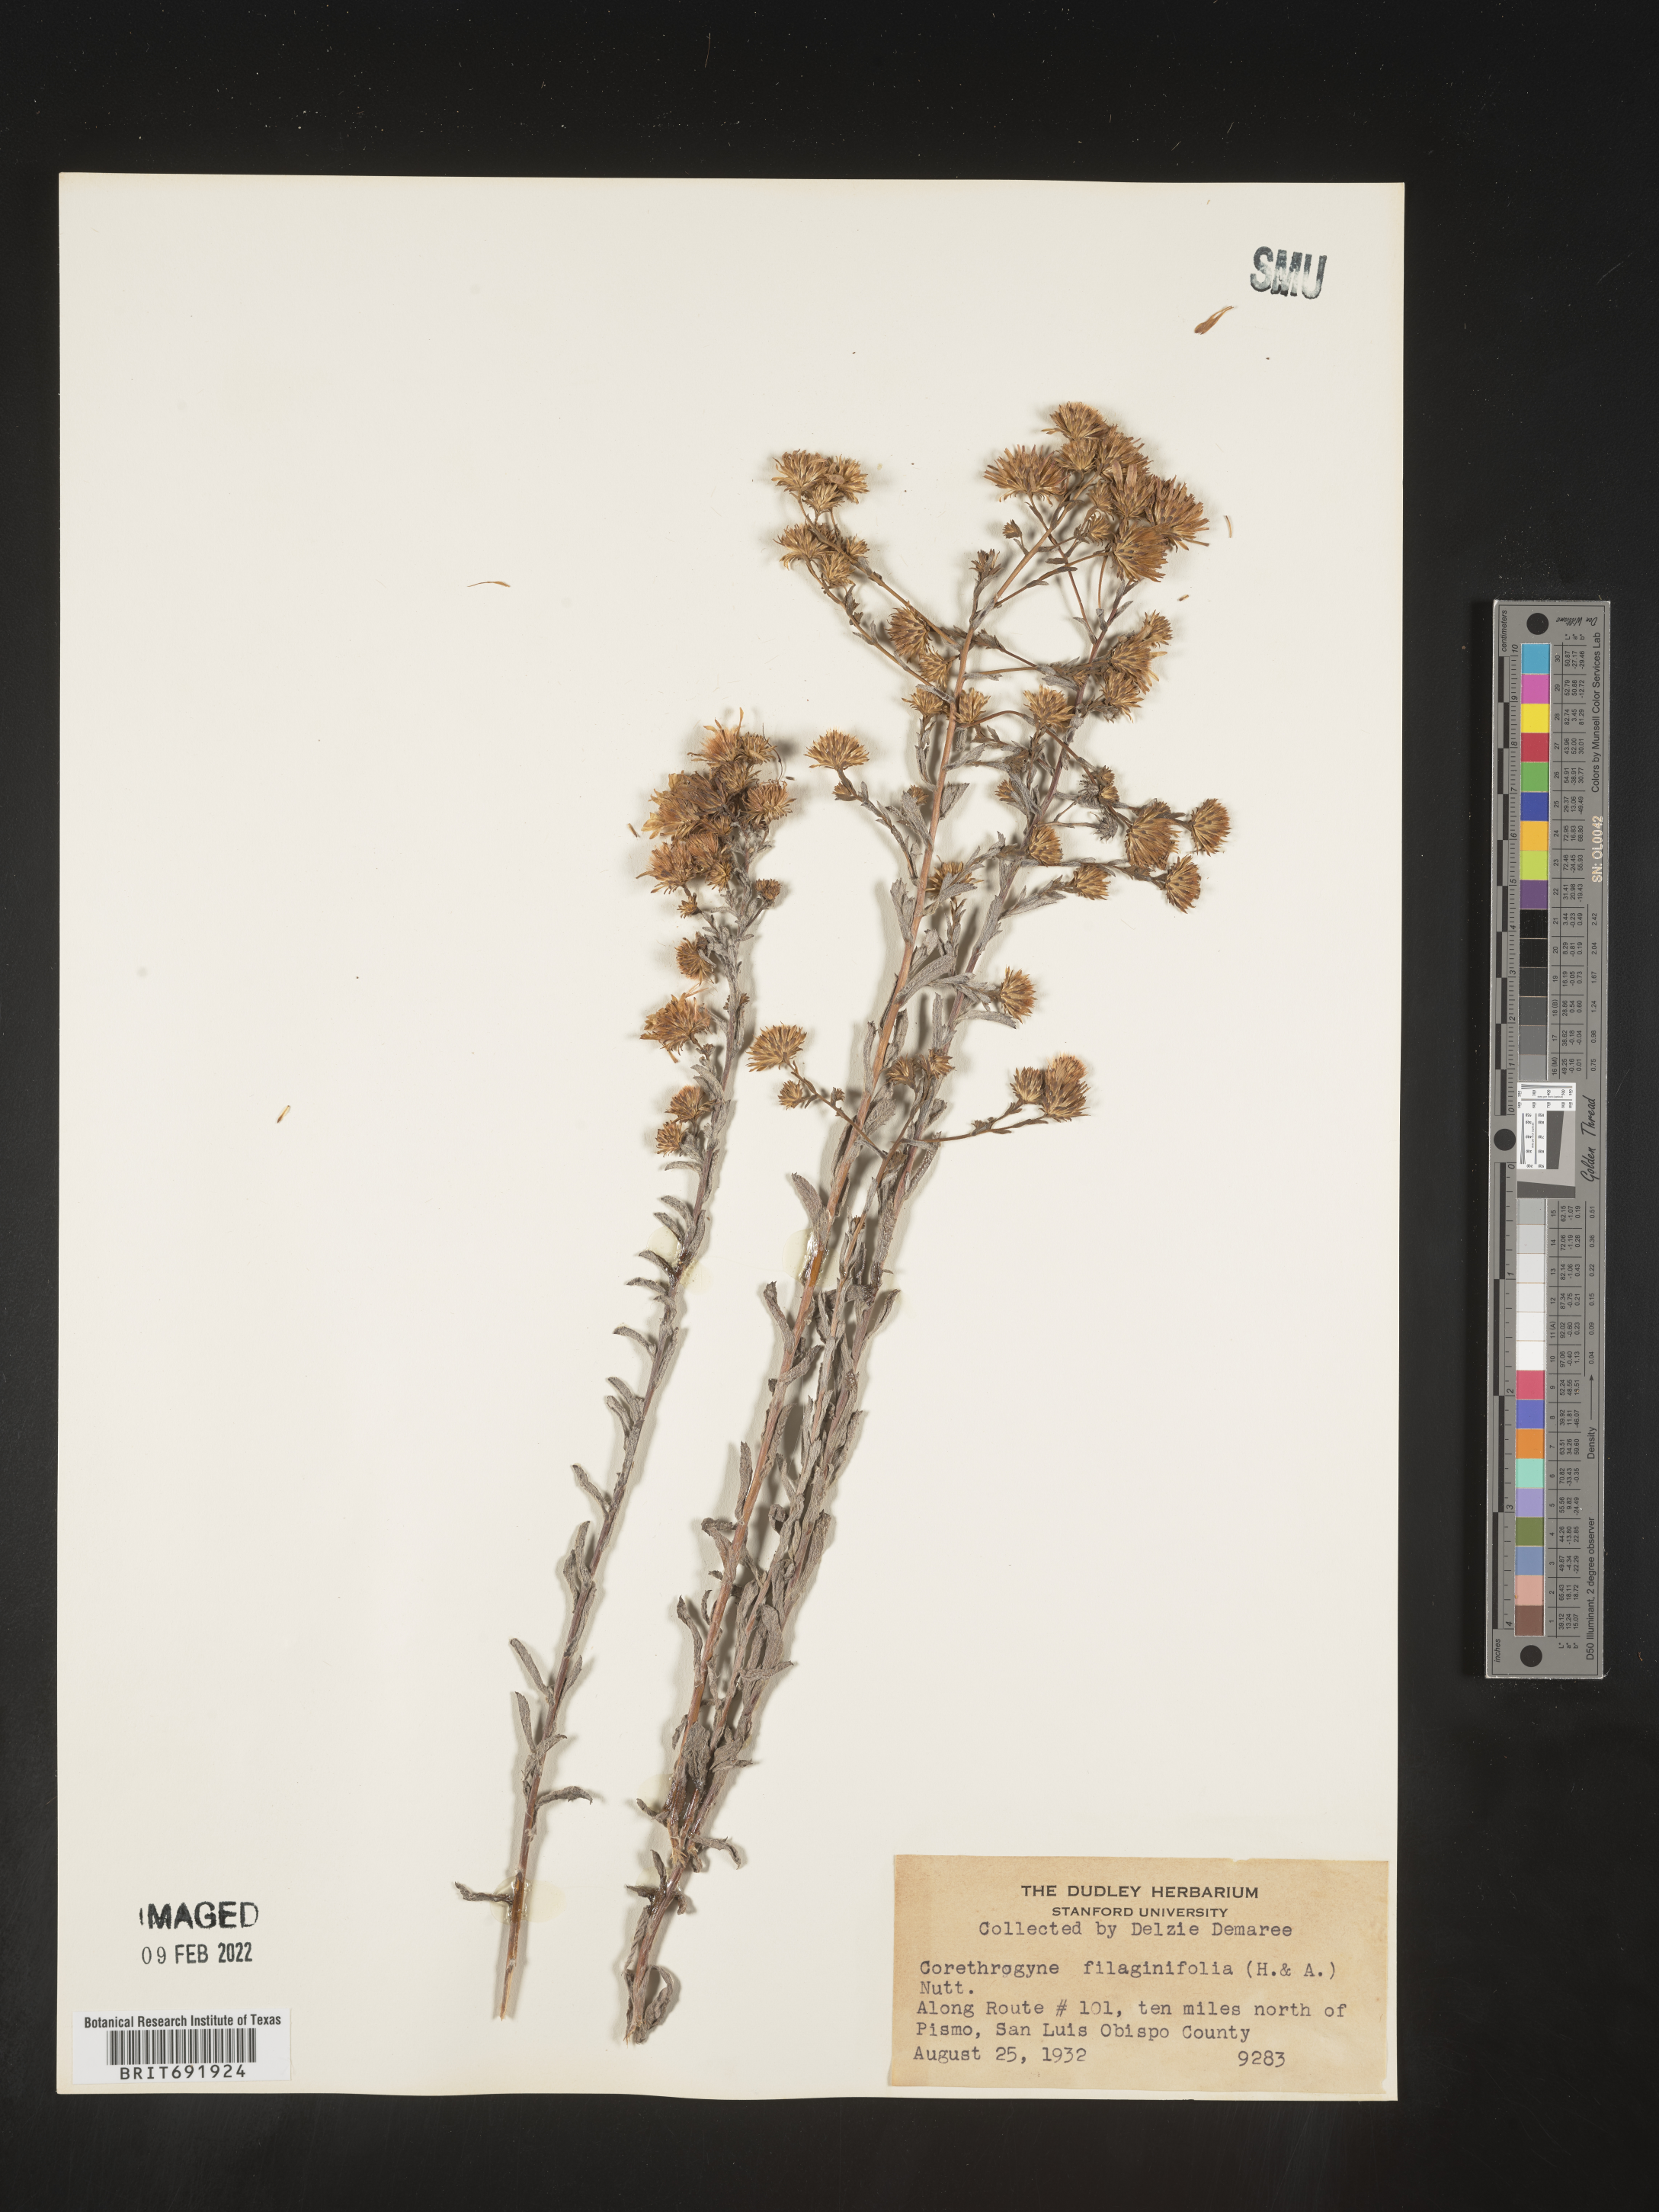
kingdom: Plantae
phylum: Tracheophyta
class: Magnoliopsida
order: Asterales
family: Asteraceae
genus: Corethrogyne
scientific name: Corethrogyne
